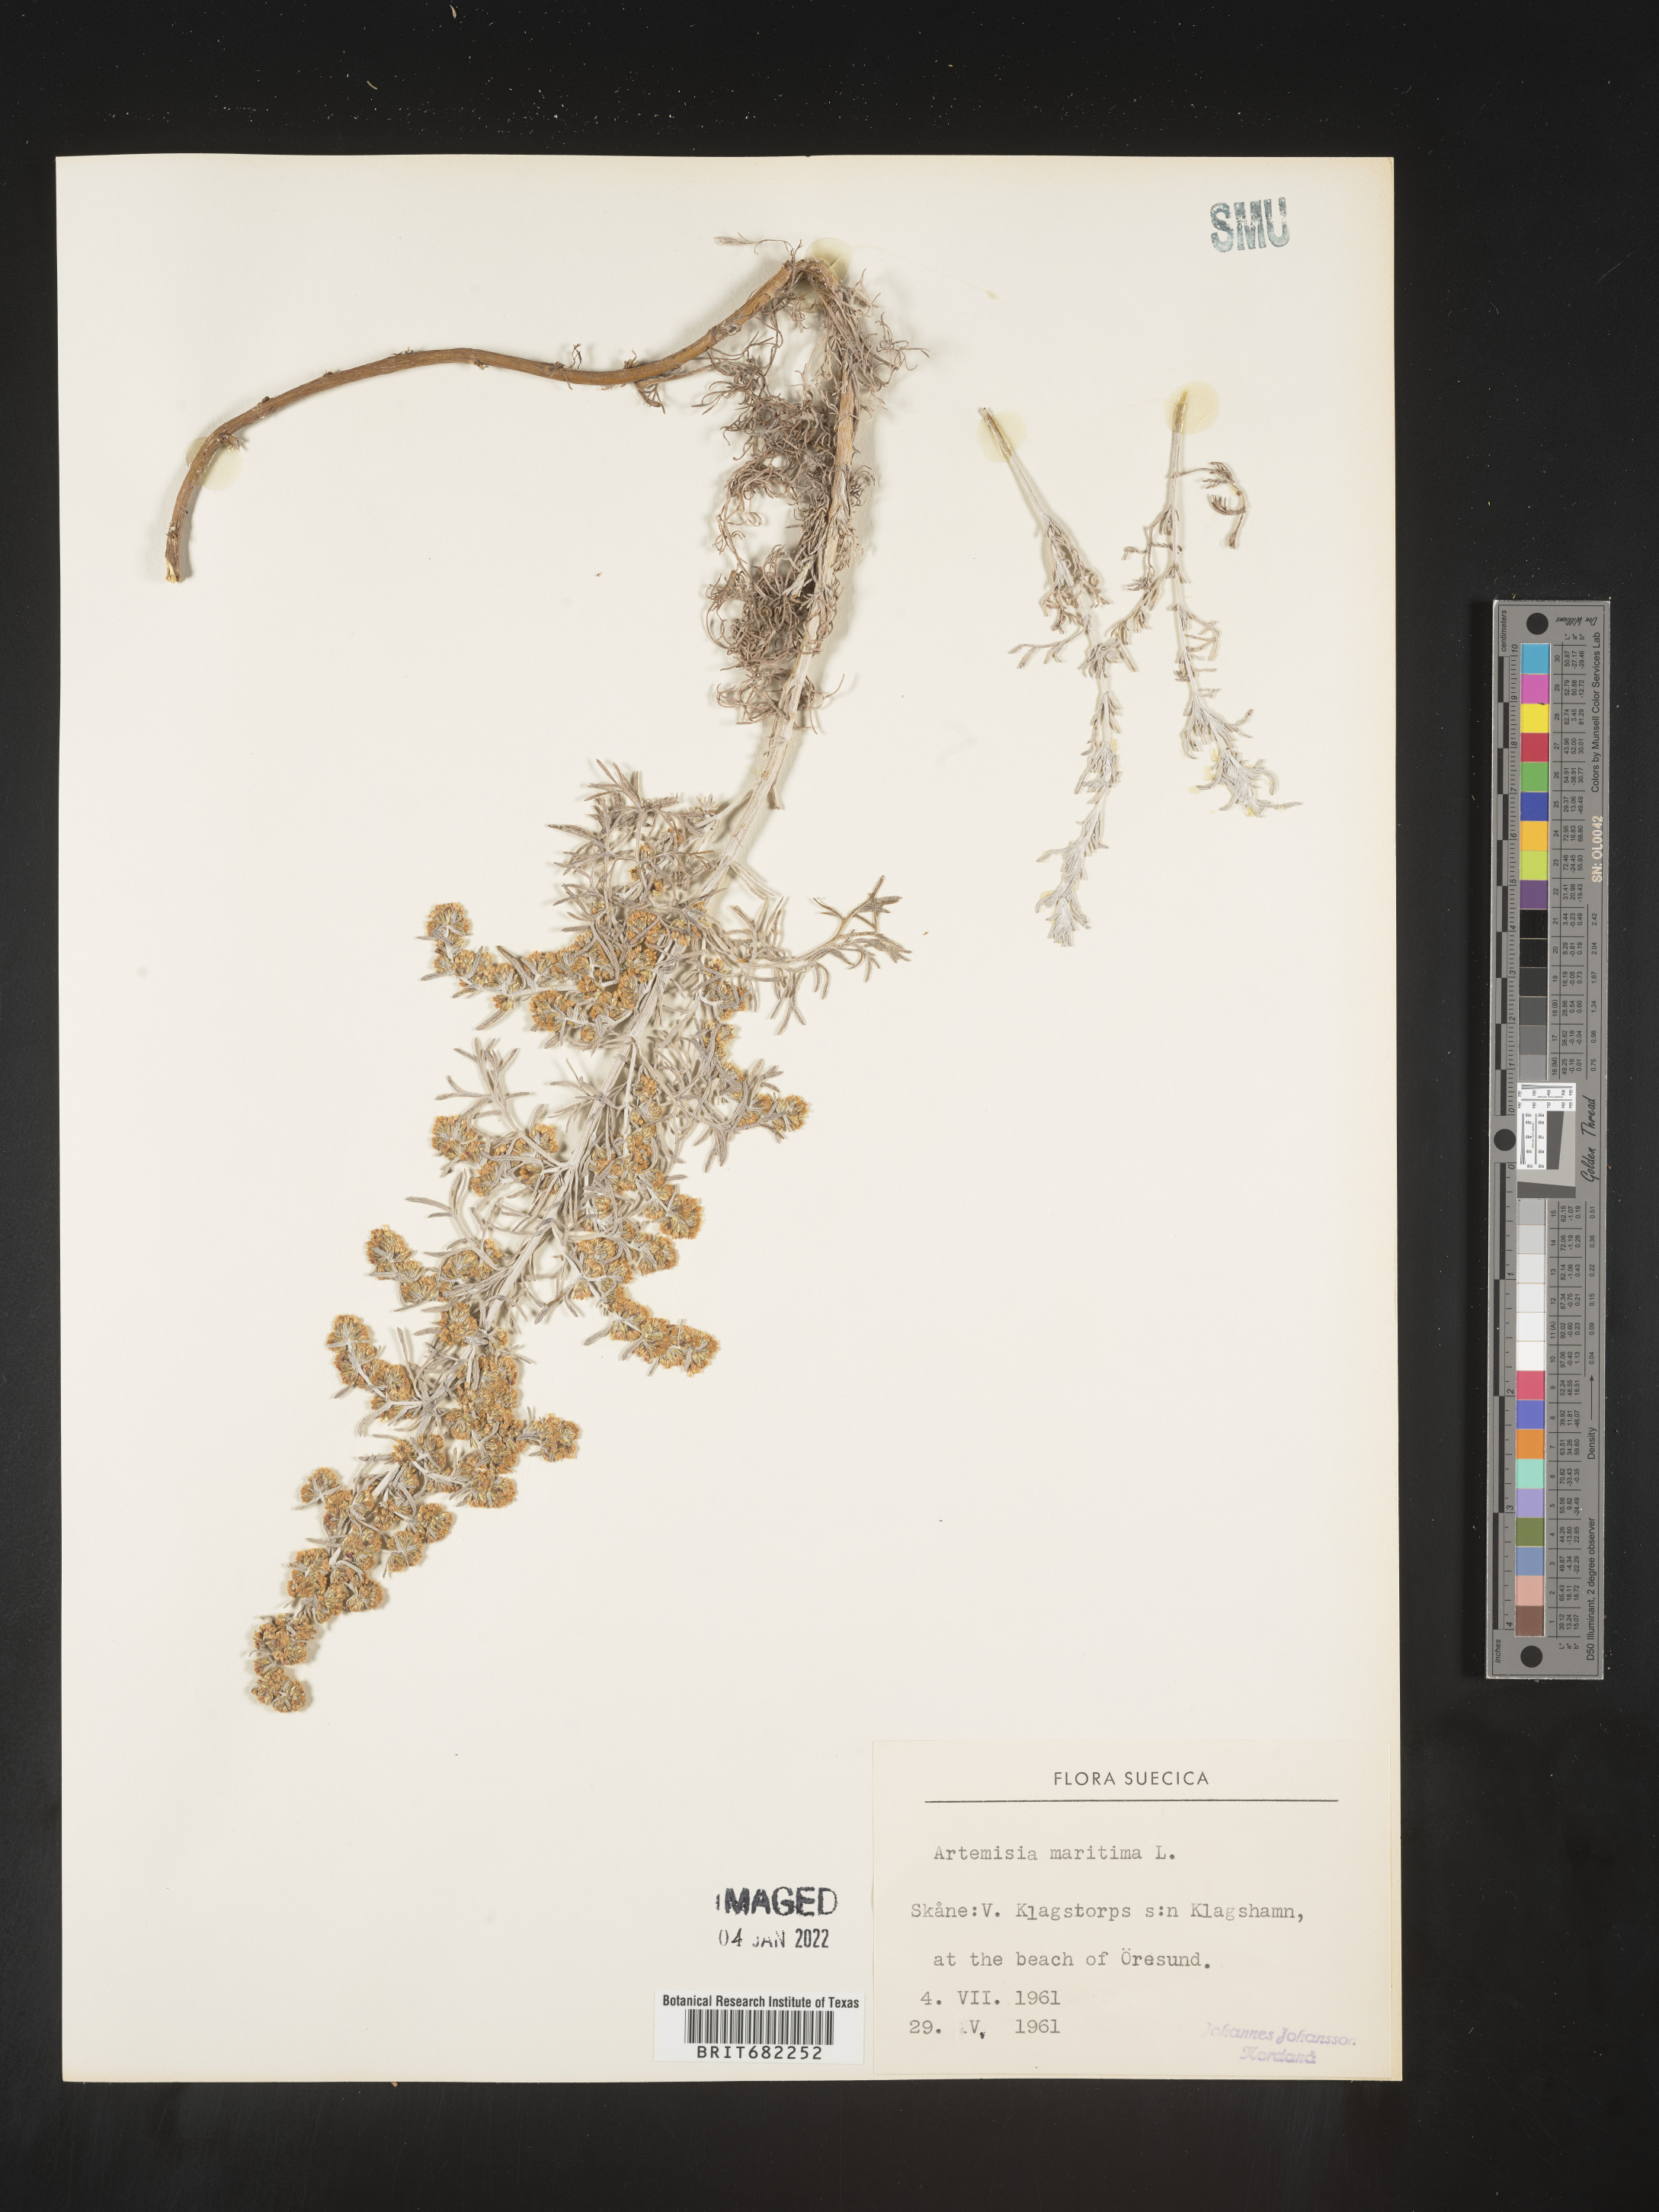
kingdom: Plantae
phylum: Tracheophyta
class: Magnoliopsida
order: Asterales
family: Asteraceae
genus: Artemisia
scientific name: Artemisia
